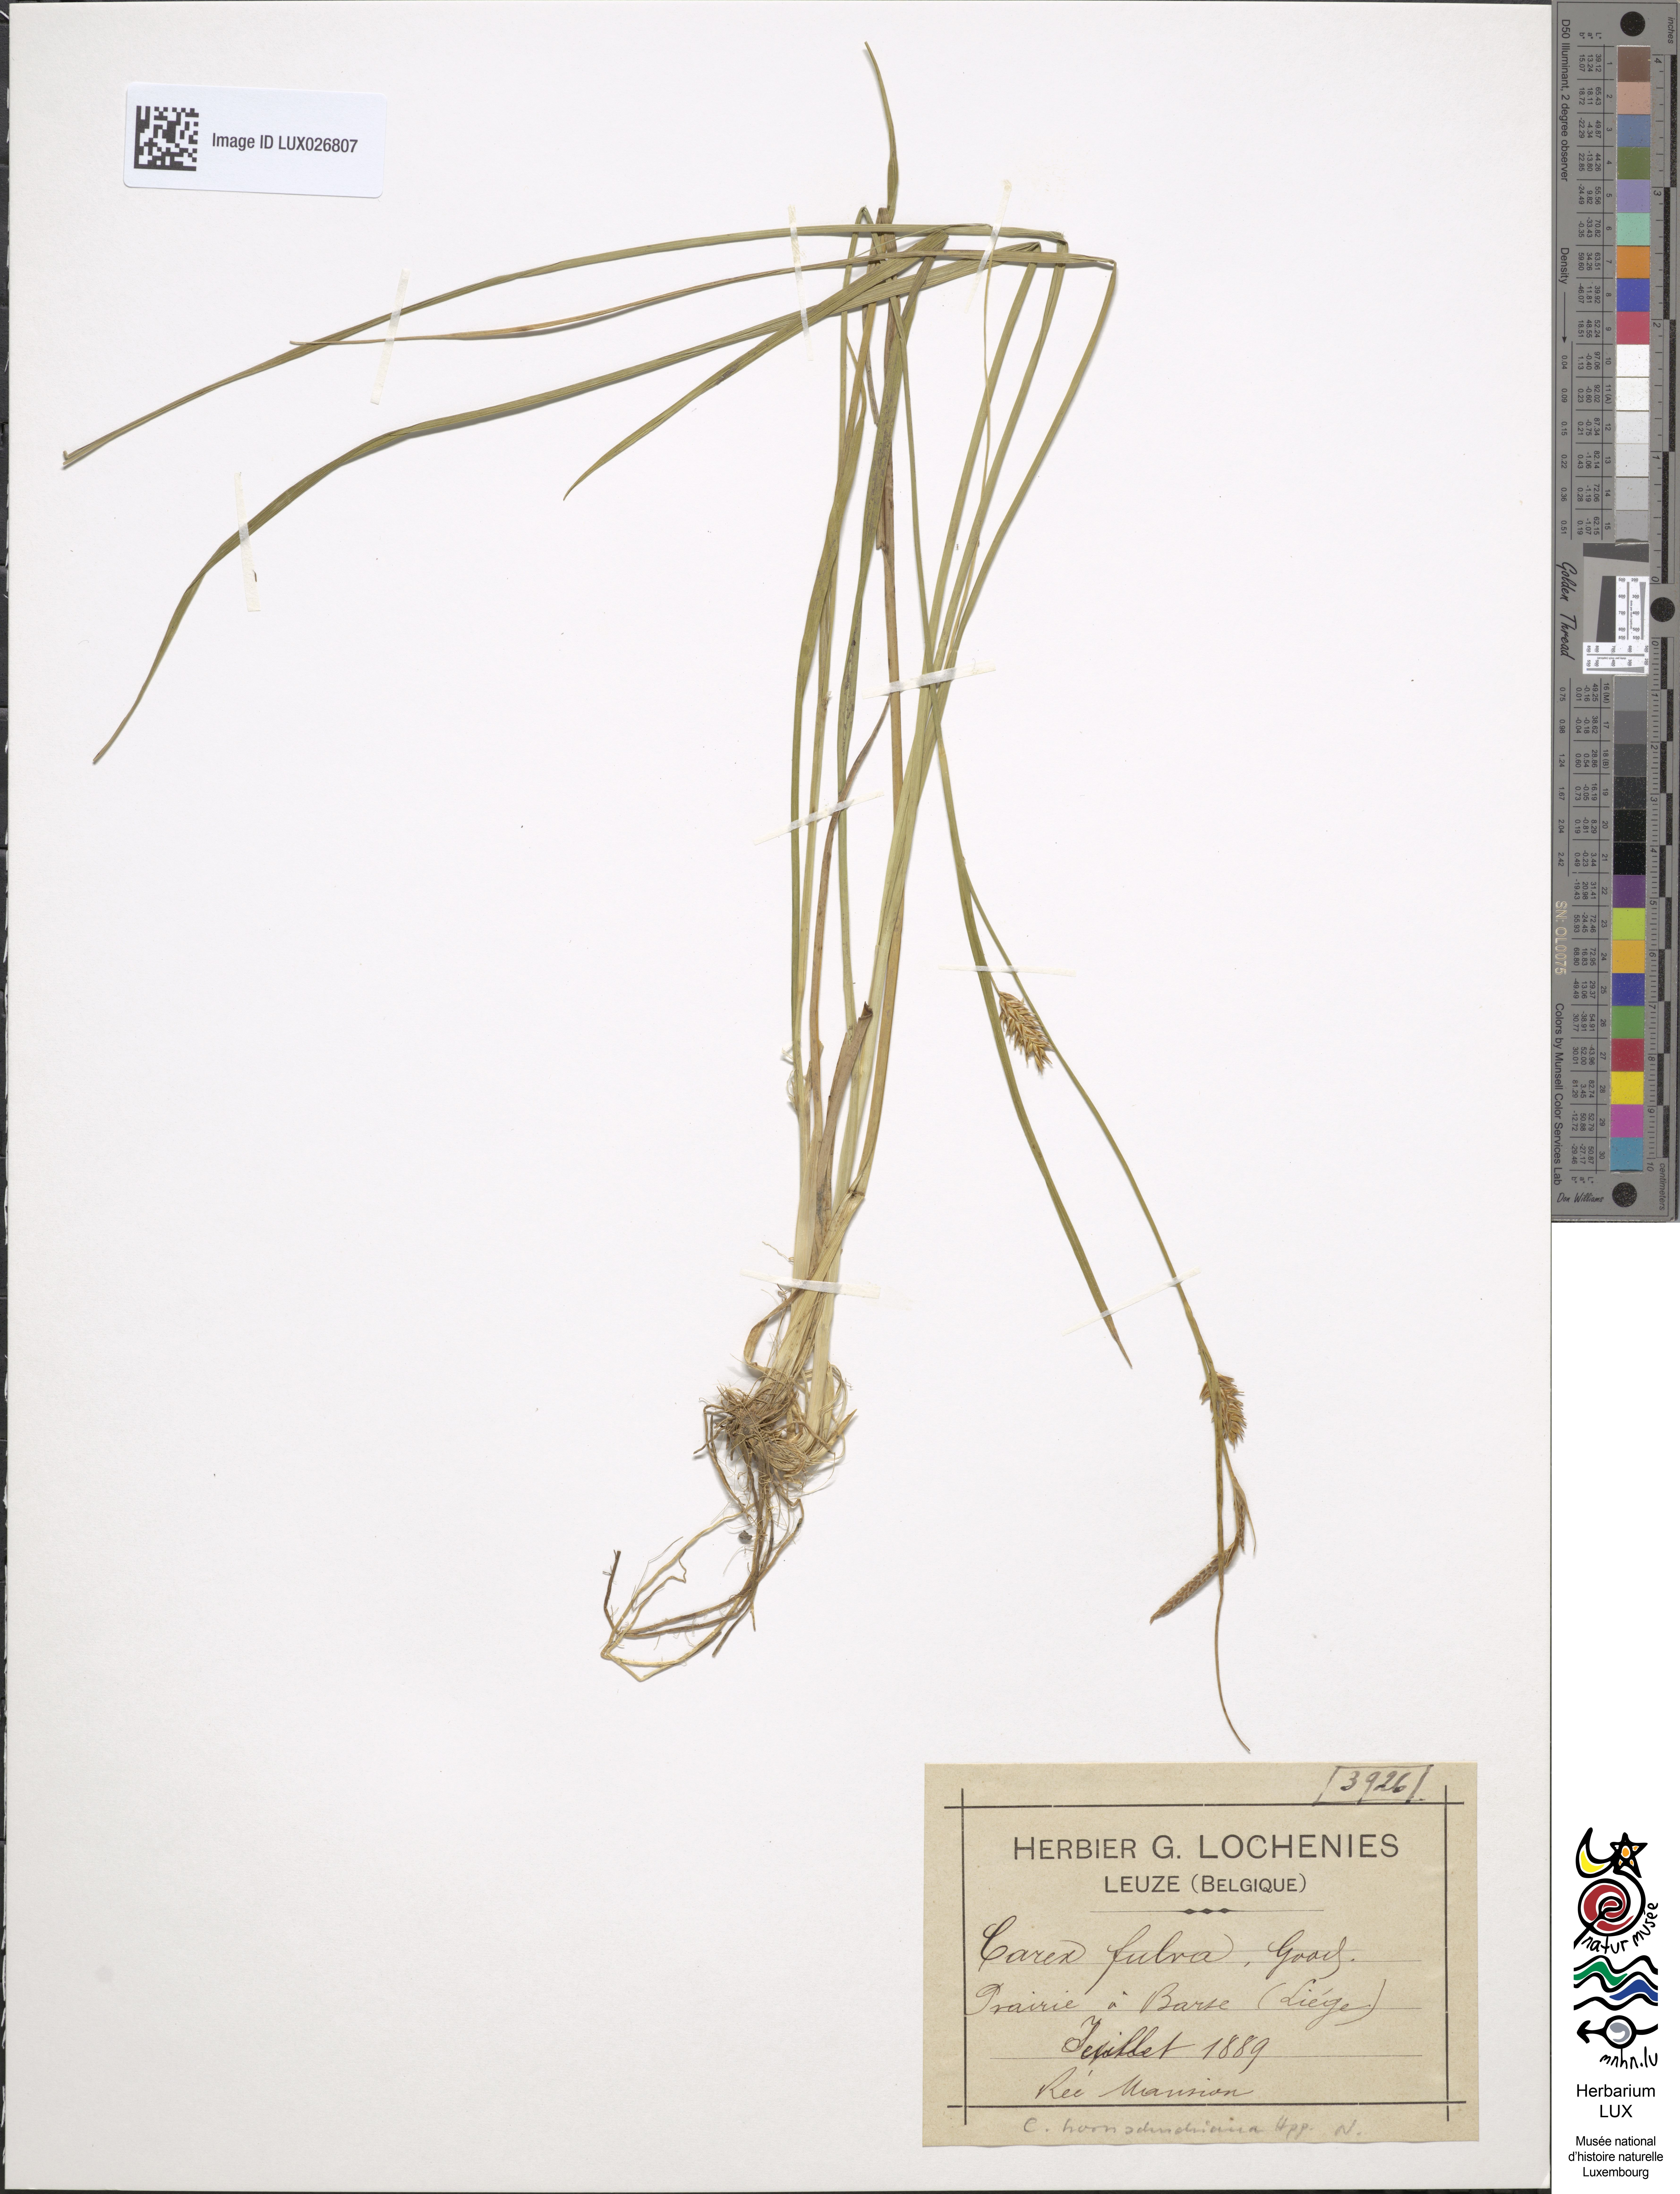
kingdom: Plantae
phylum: Tracheophyta
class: Liliopsida
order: Poales
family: Cyperaceae
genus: Carex
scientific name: Carex hostiana
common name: Tawny sedge
